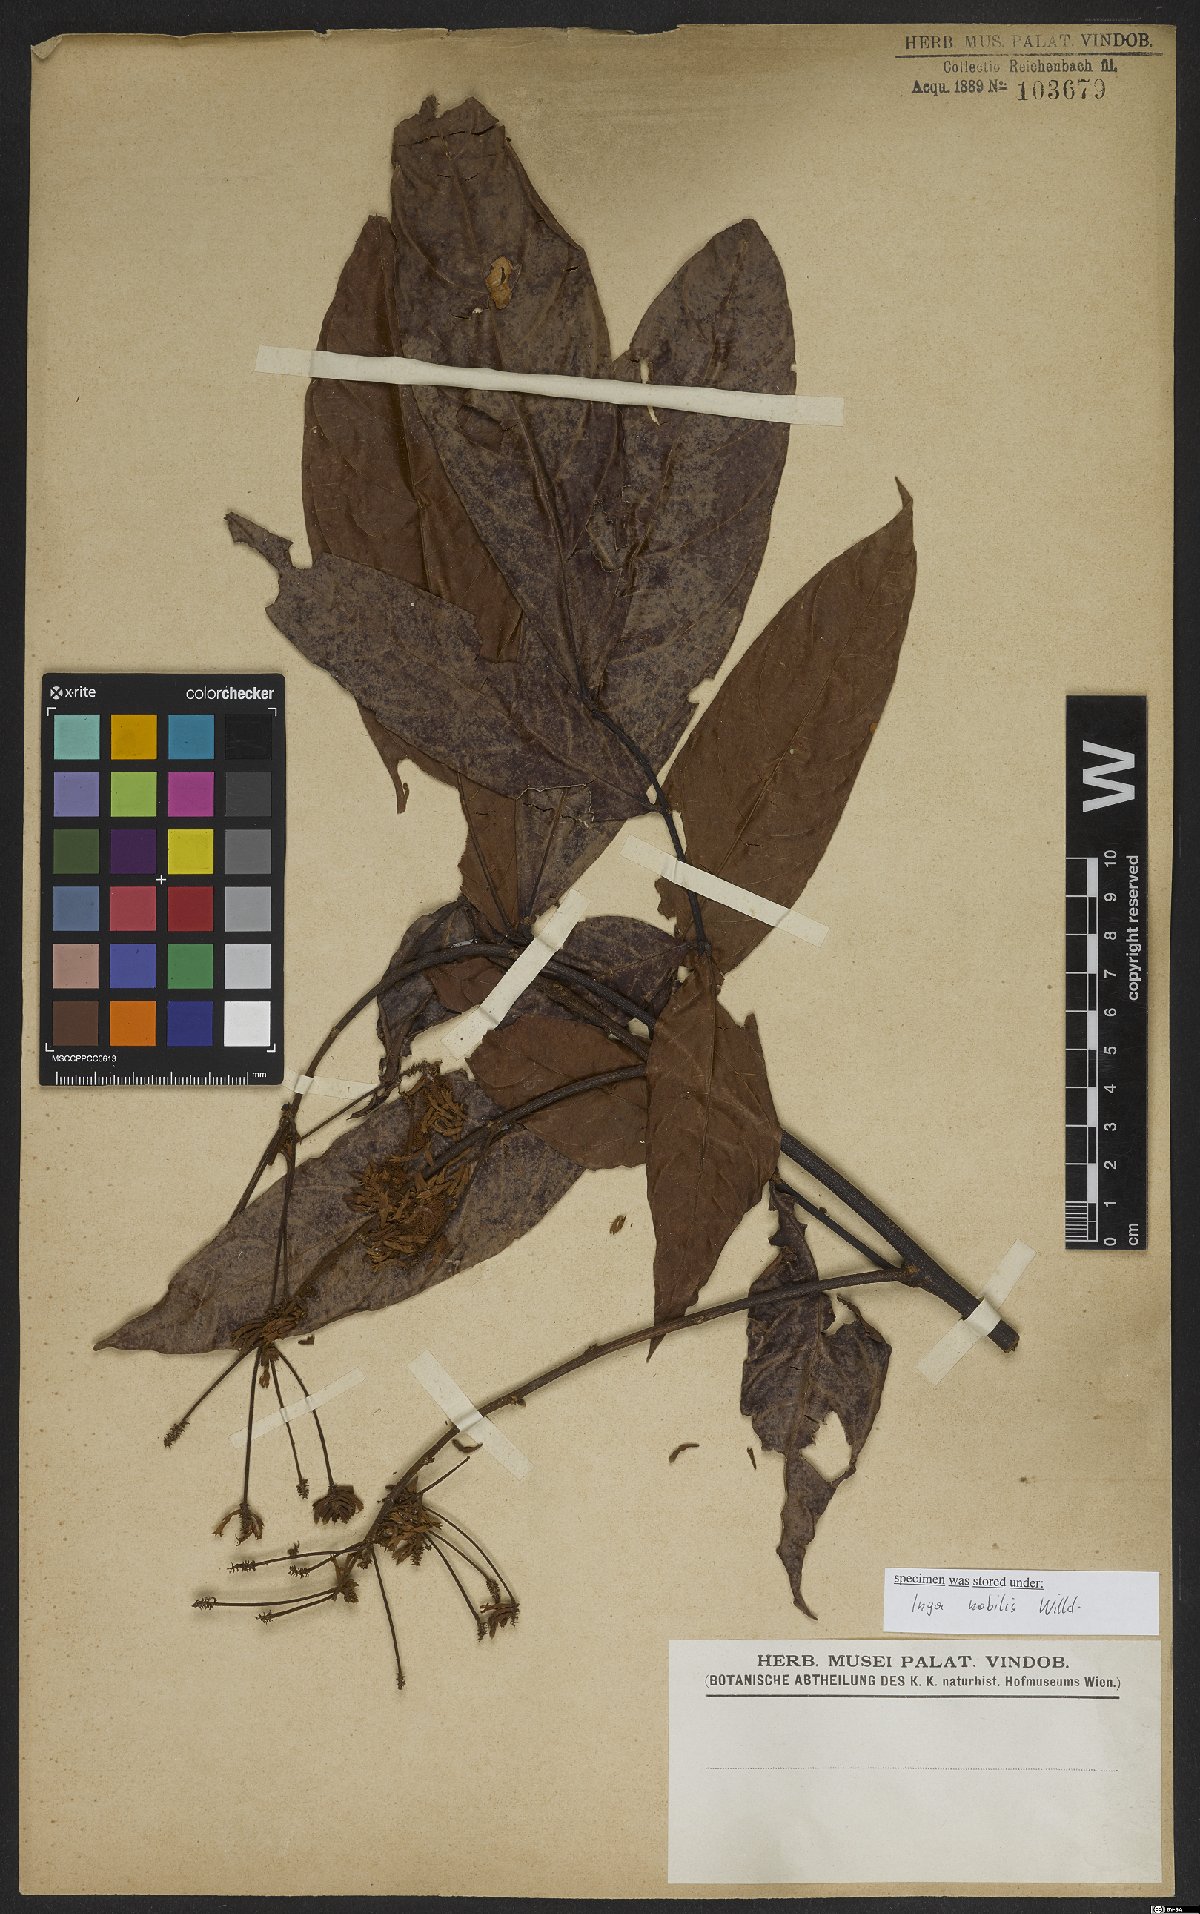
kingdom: Plantae
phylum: Tracheophyta
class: Magnoliopsida
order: Fabales
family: Fabaceae
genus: Inga
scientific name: Inga nobilis
